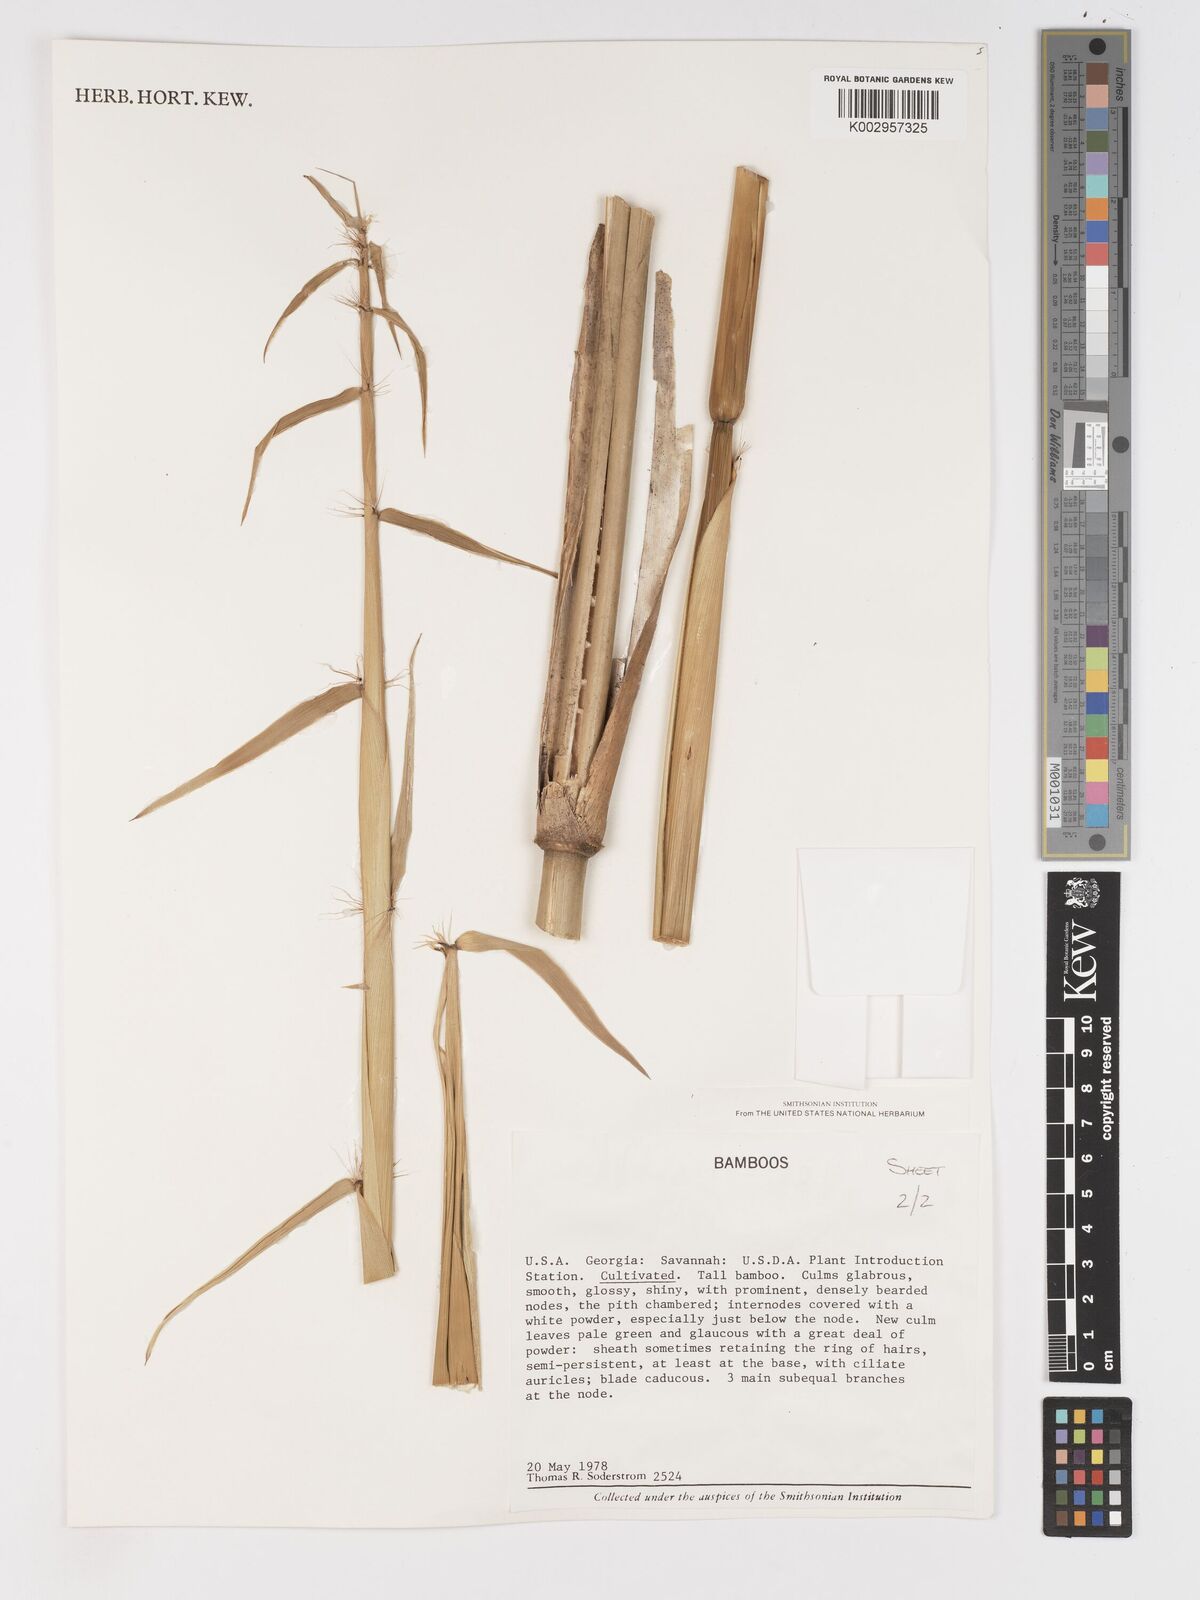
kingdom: Plantae
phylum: Tracheophyta
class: Liliopsida
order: Poales
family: Poaceae
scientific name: Poaceae
